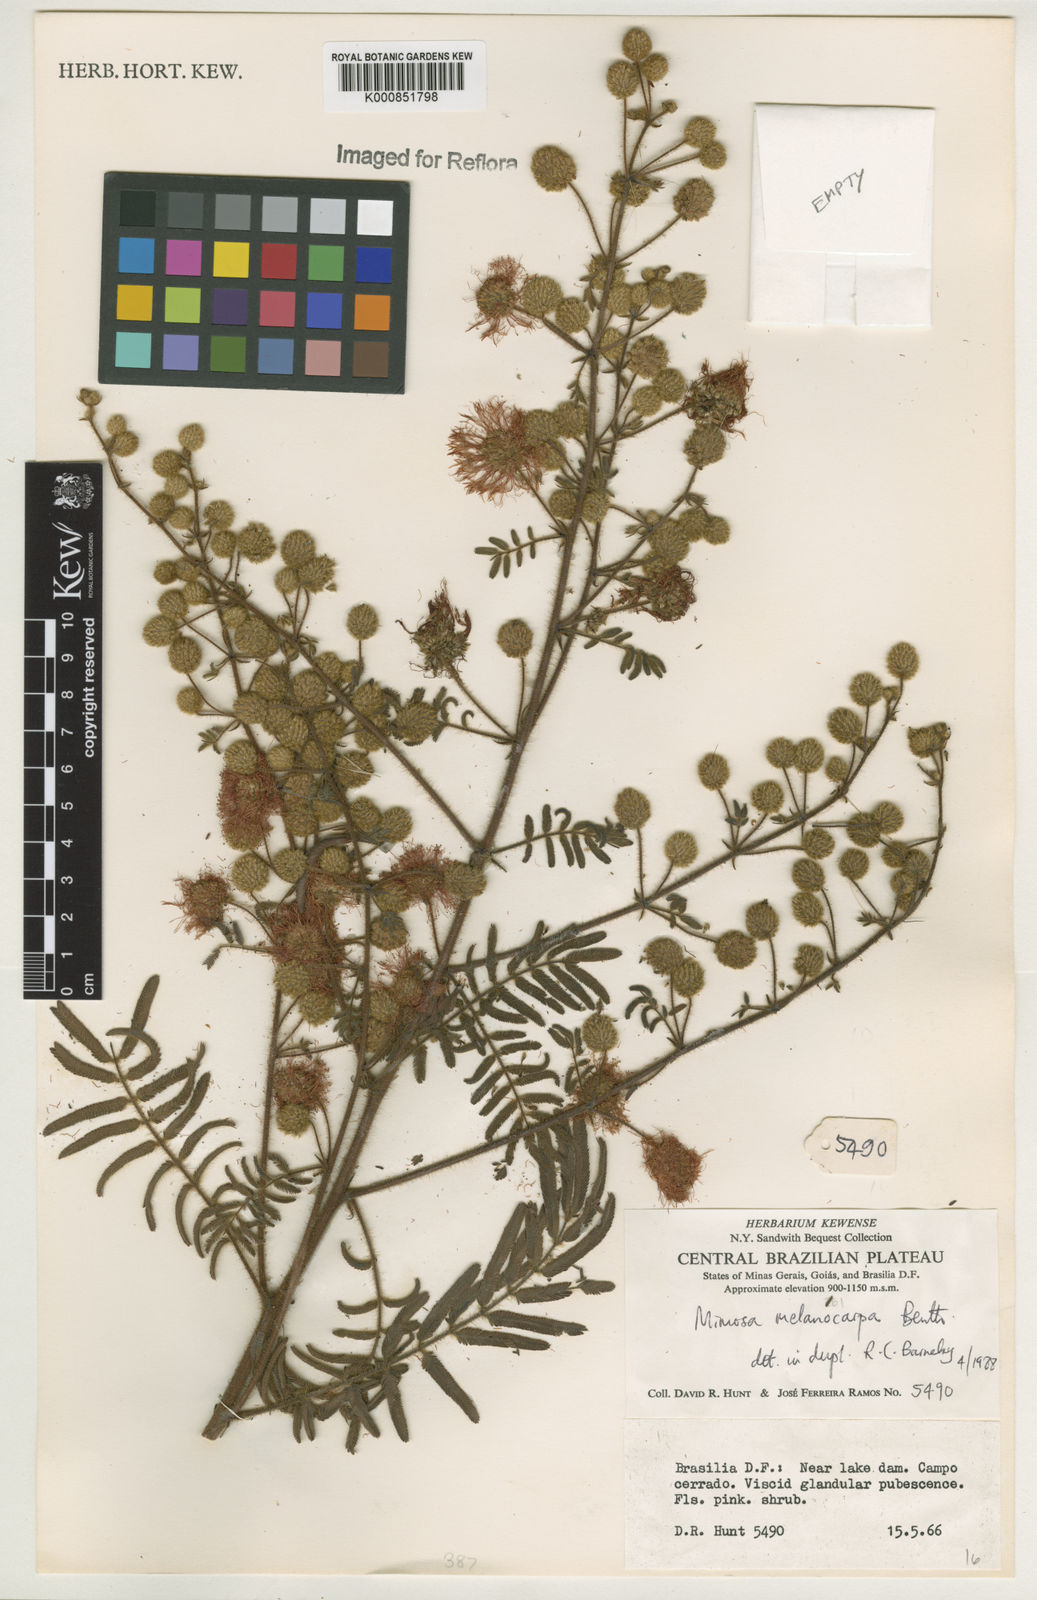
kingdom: Plantae
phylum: Tracheophyta
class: Magnoliopsida
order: Fabales
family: Fabaceae
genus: Mimosa
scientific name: Mimosa melanocarpa
